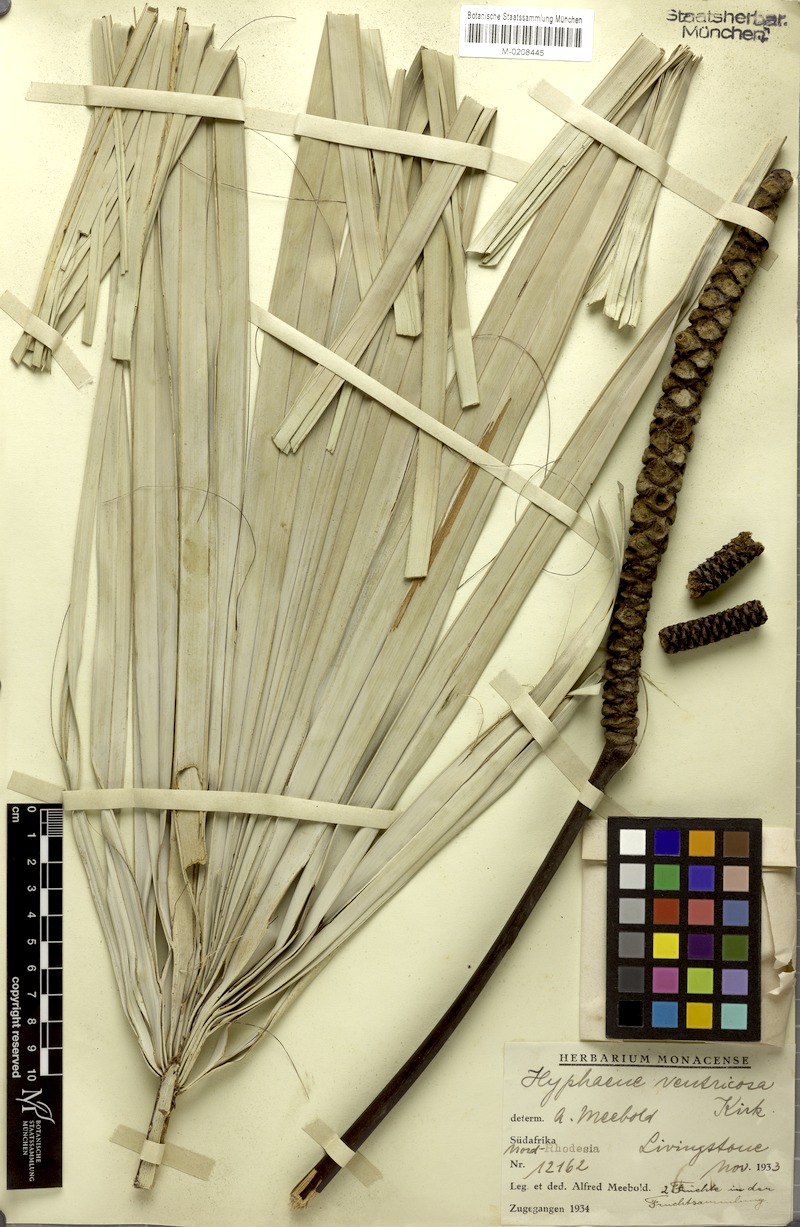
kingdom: Plantae
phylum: Tracheophyta
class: Liliopsida
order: Arecales
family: Arecaceae
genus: Hyphaene
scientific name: Hyphaene petersiana
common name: African ivory nut palm
